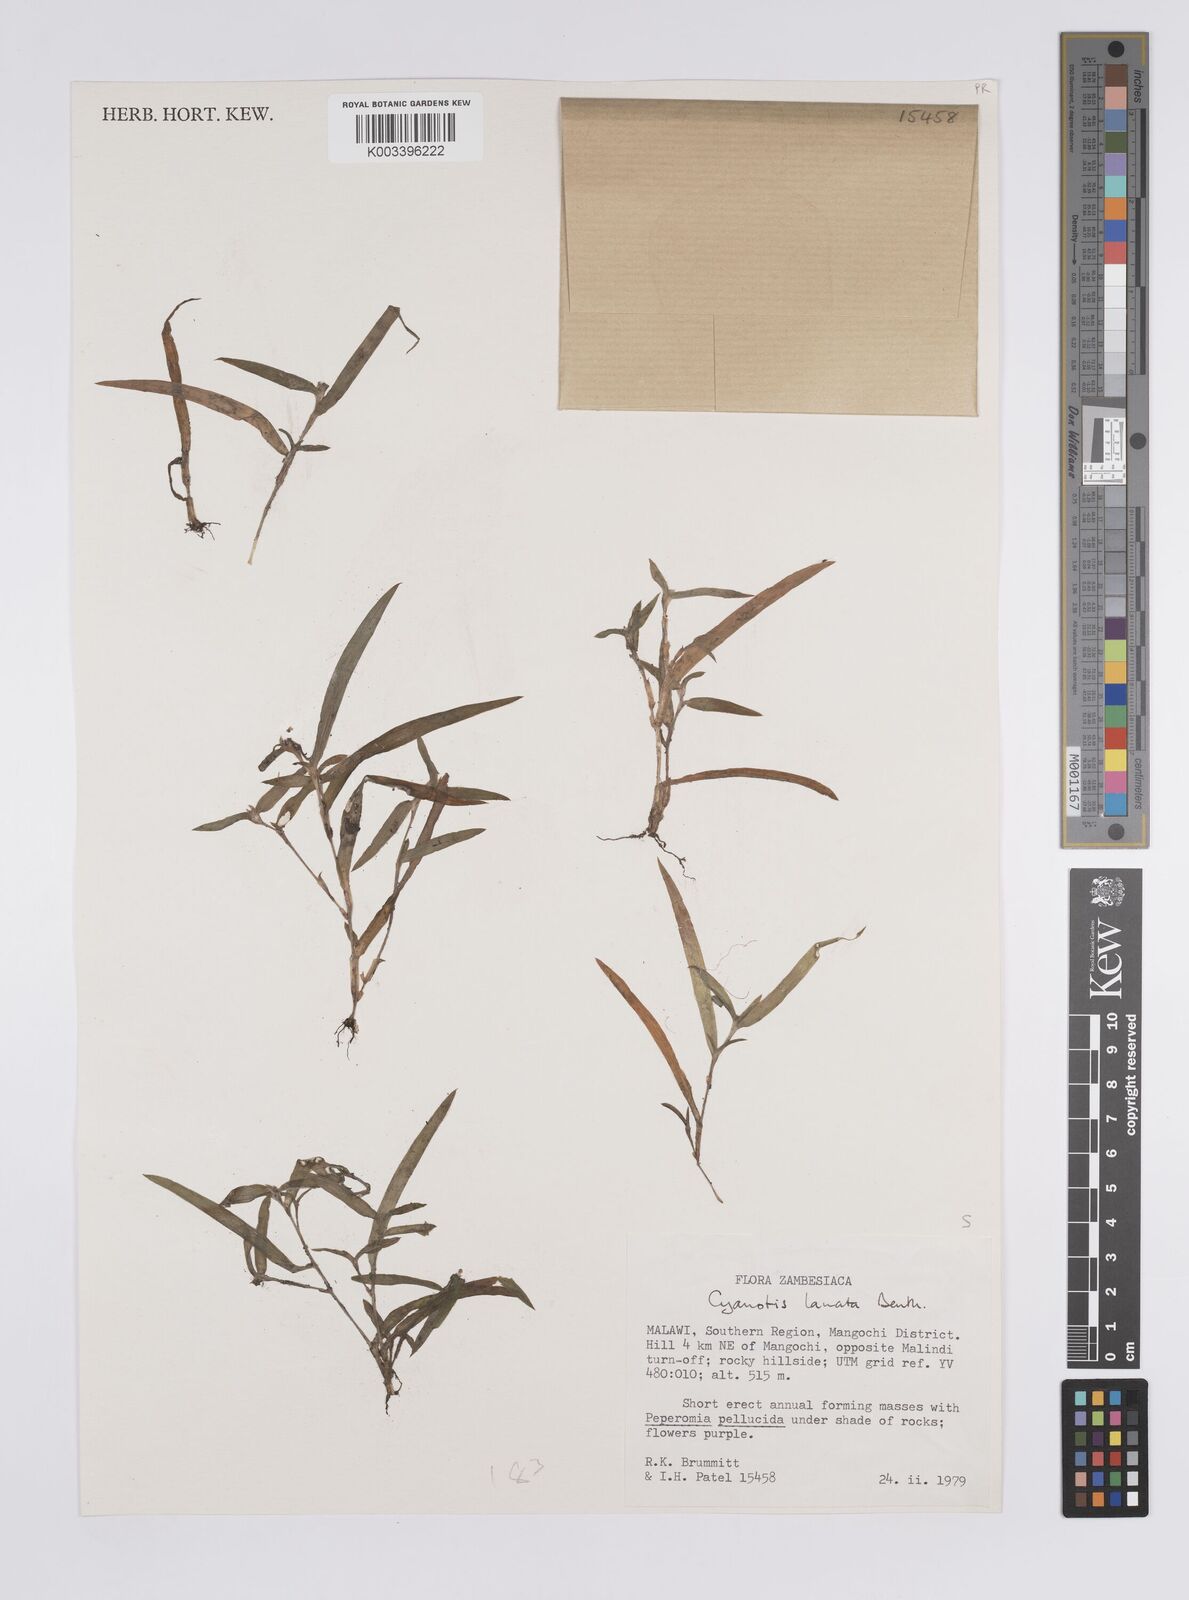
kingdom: Plantae
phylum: Tracheophyta
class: Liliopsida
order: Commelinales
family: Commelinaceae
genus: Cyanotis
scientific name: Cyanotis lanata
